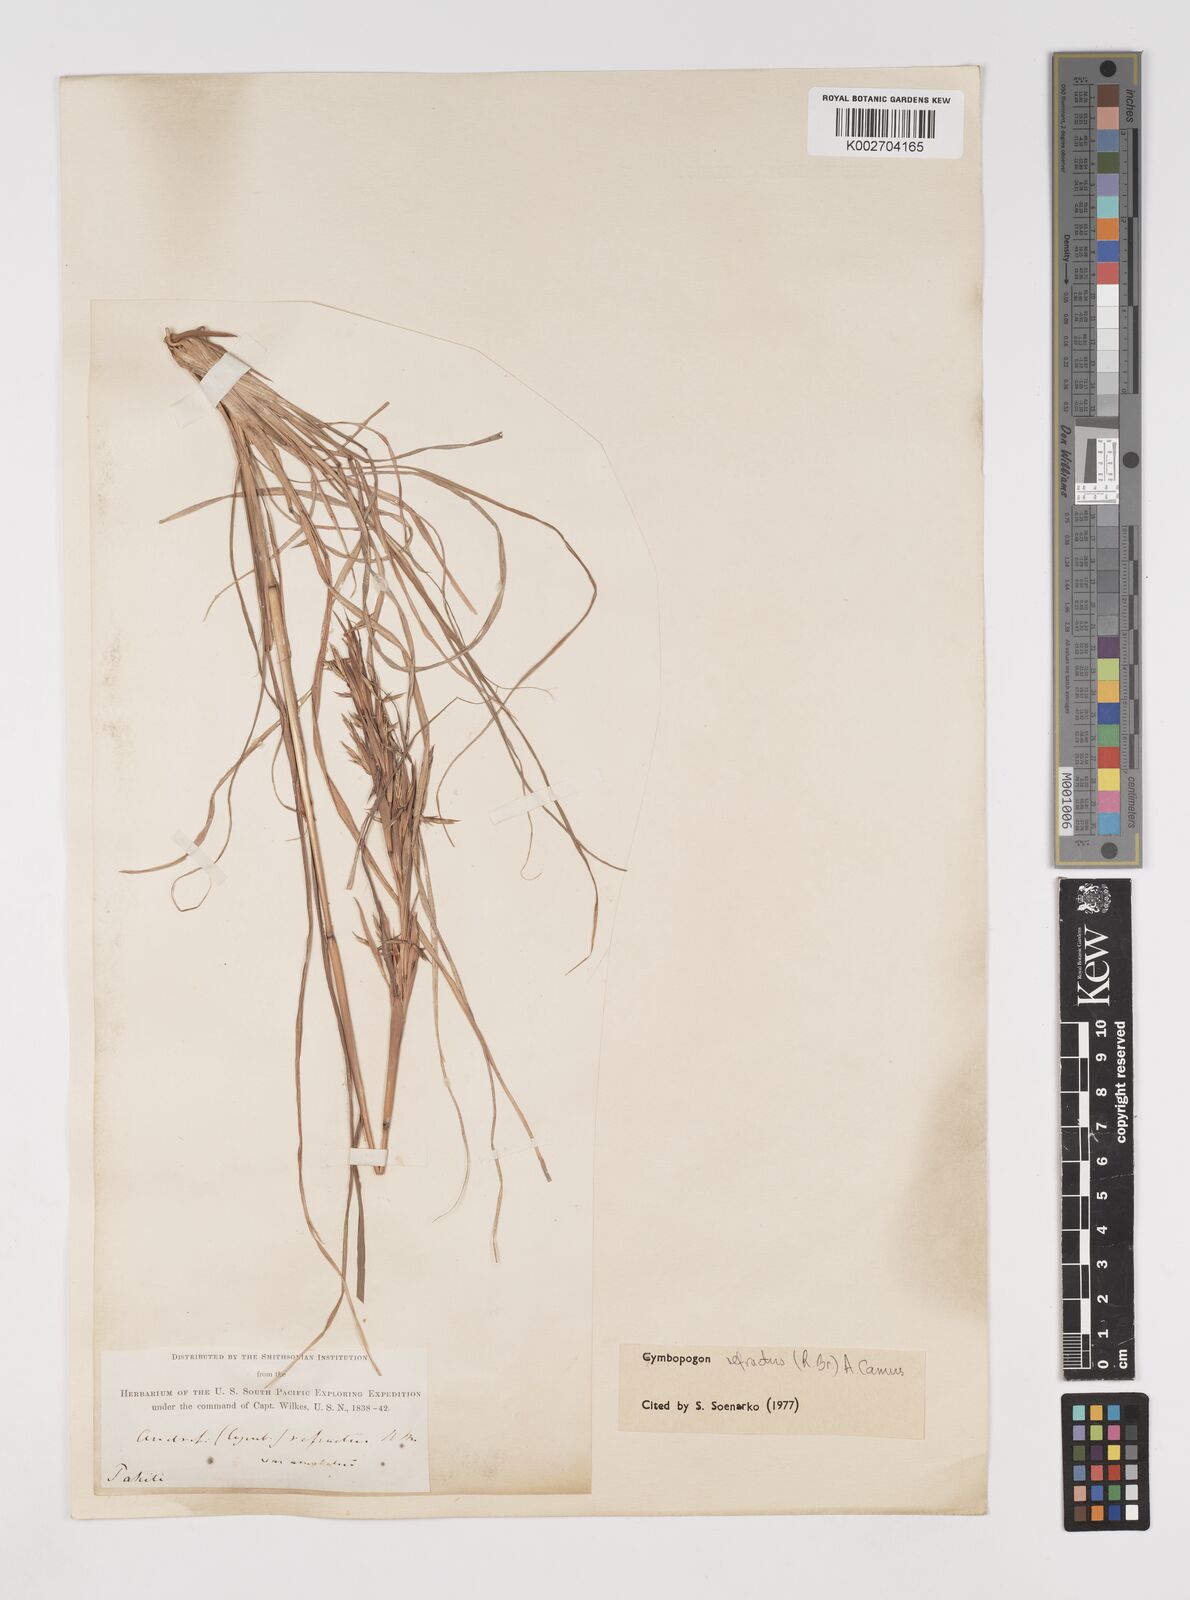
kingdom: Plantae
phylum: Tracheophyta
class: Liliopsida
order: Poales
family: Poaceae
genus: Cymbopogon
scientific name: Cymbopogon refractus
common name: Barbwire grass
